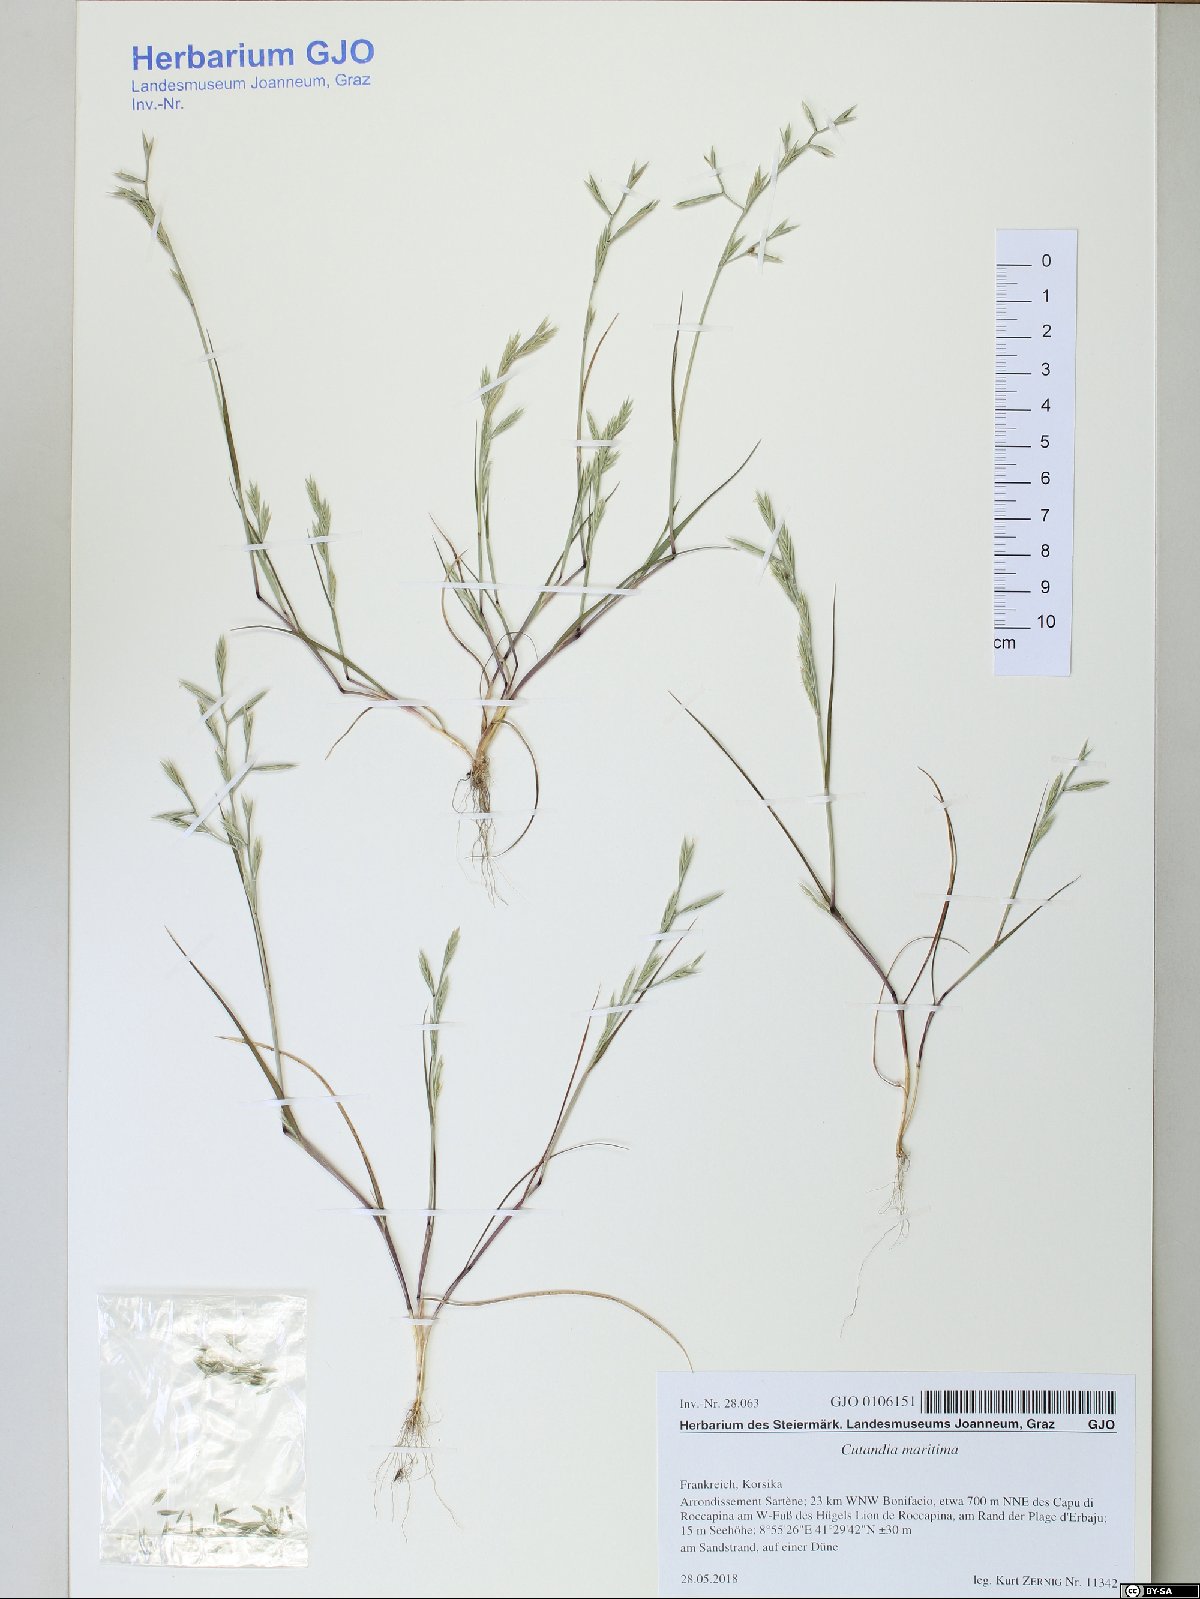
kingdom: Plantae
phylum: Tracheophyta
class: Liliopsida
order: Poales
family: Poaceae
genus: Cutandia
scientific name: Cutandia maritima
